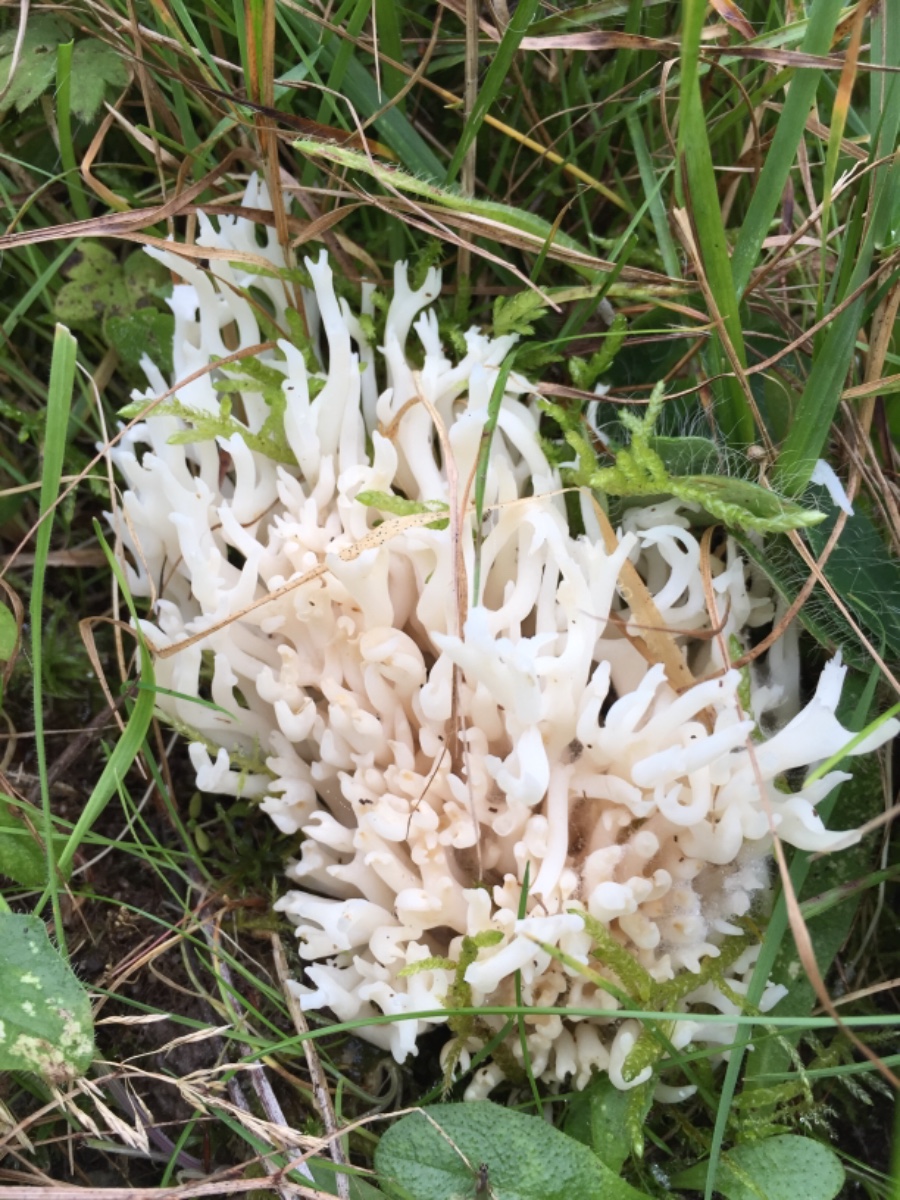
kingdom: Fungi
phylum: Basidiomycota
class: Agaricomycetes
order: Agaricales
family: Clavariaceae
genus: Ramariopsis
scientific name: Ramariopsis robusta
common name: tykgrenet køllesvamp
